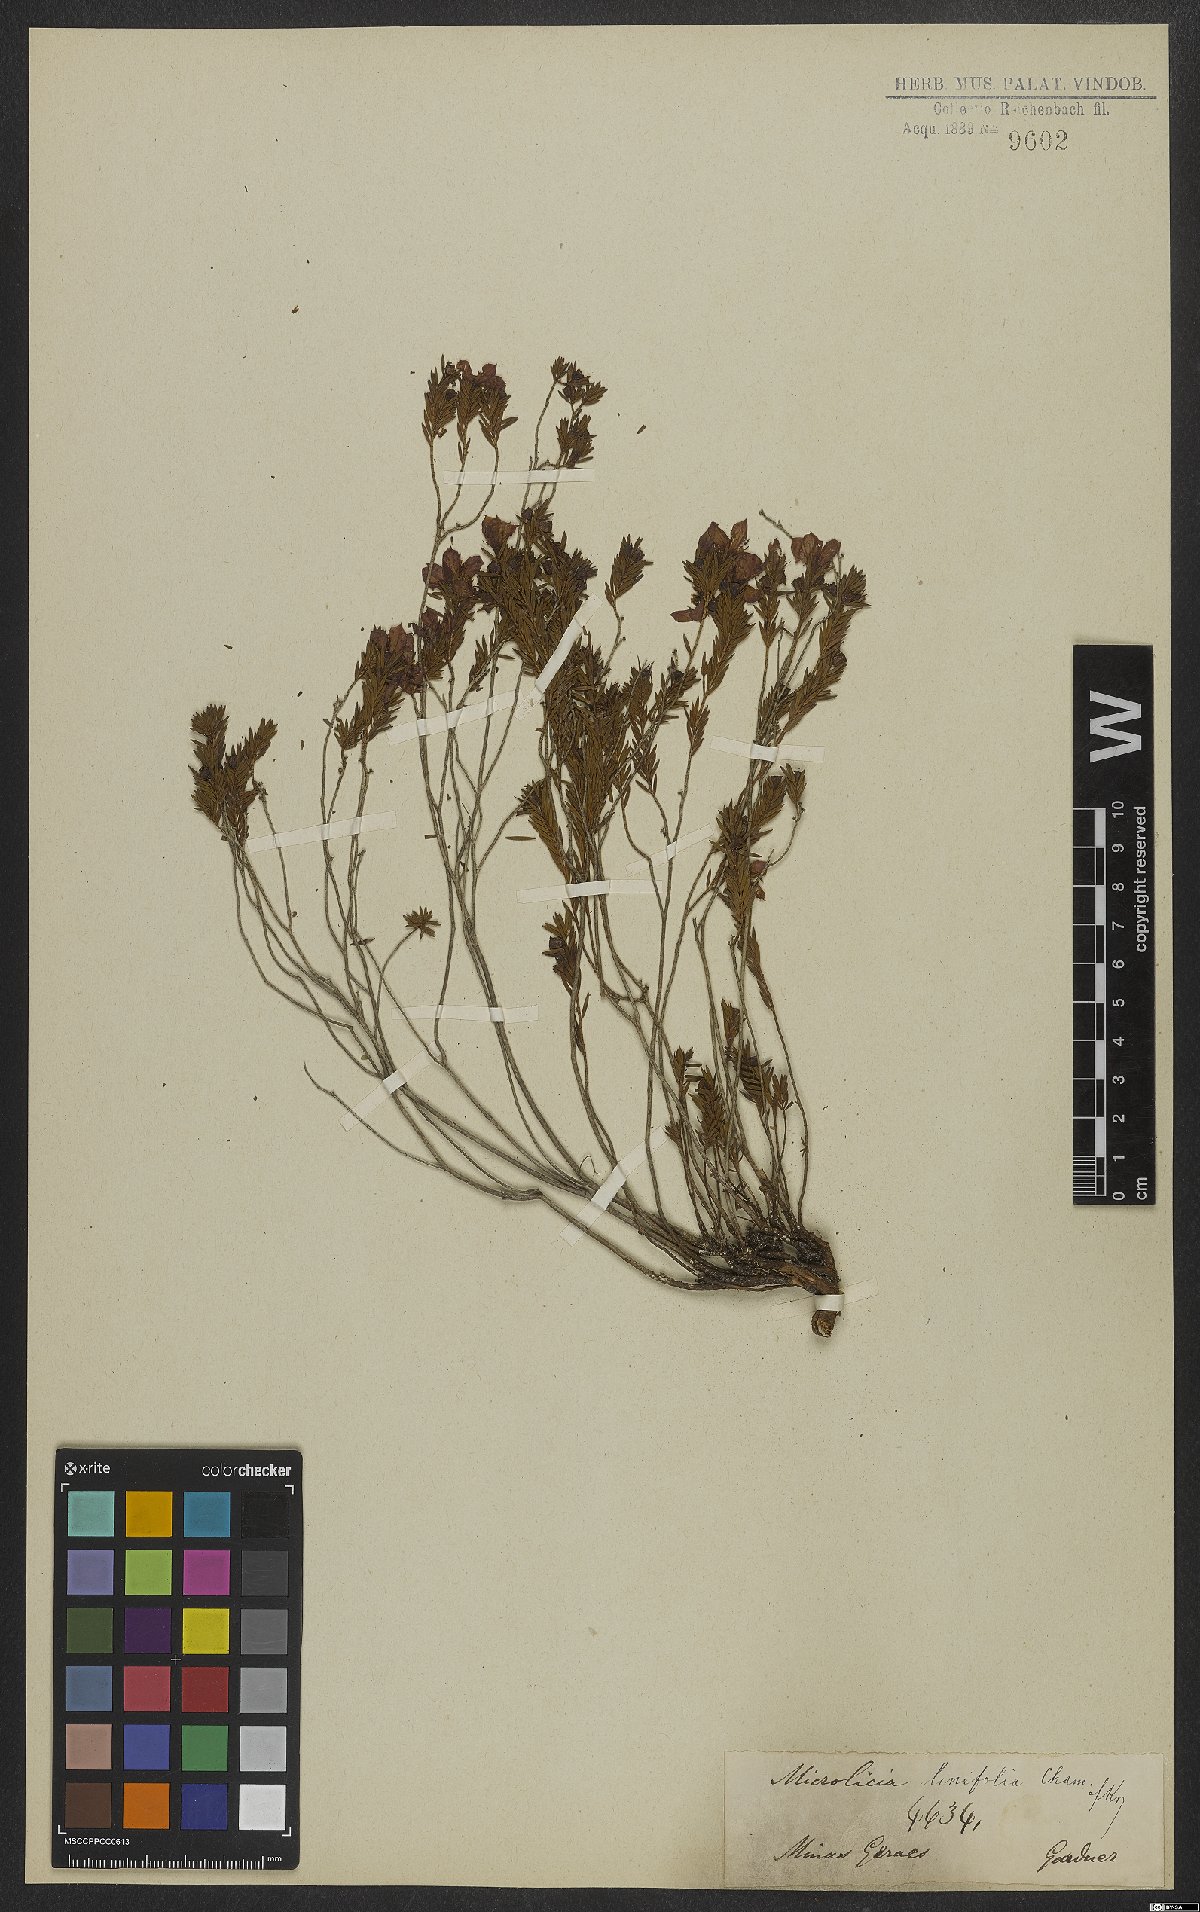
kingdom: Plantae
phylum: Tracheophyta
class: Magnoliopsida
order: Myrtales
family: Melastomataceae
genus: Microlicia
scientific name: Microlicia linifolia
